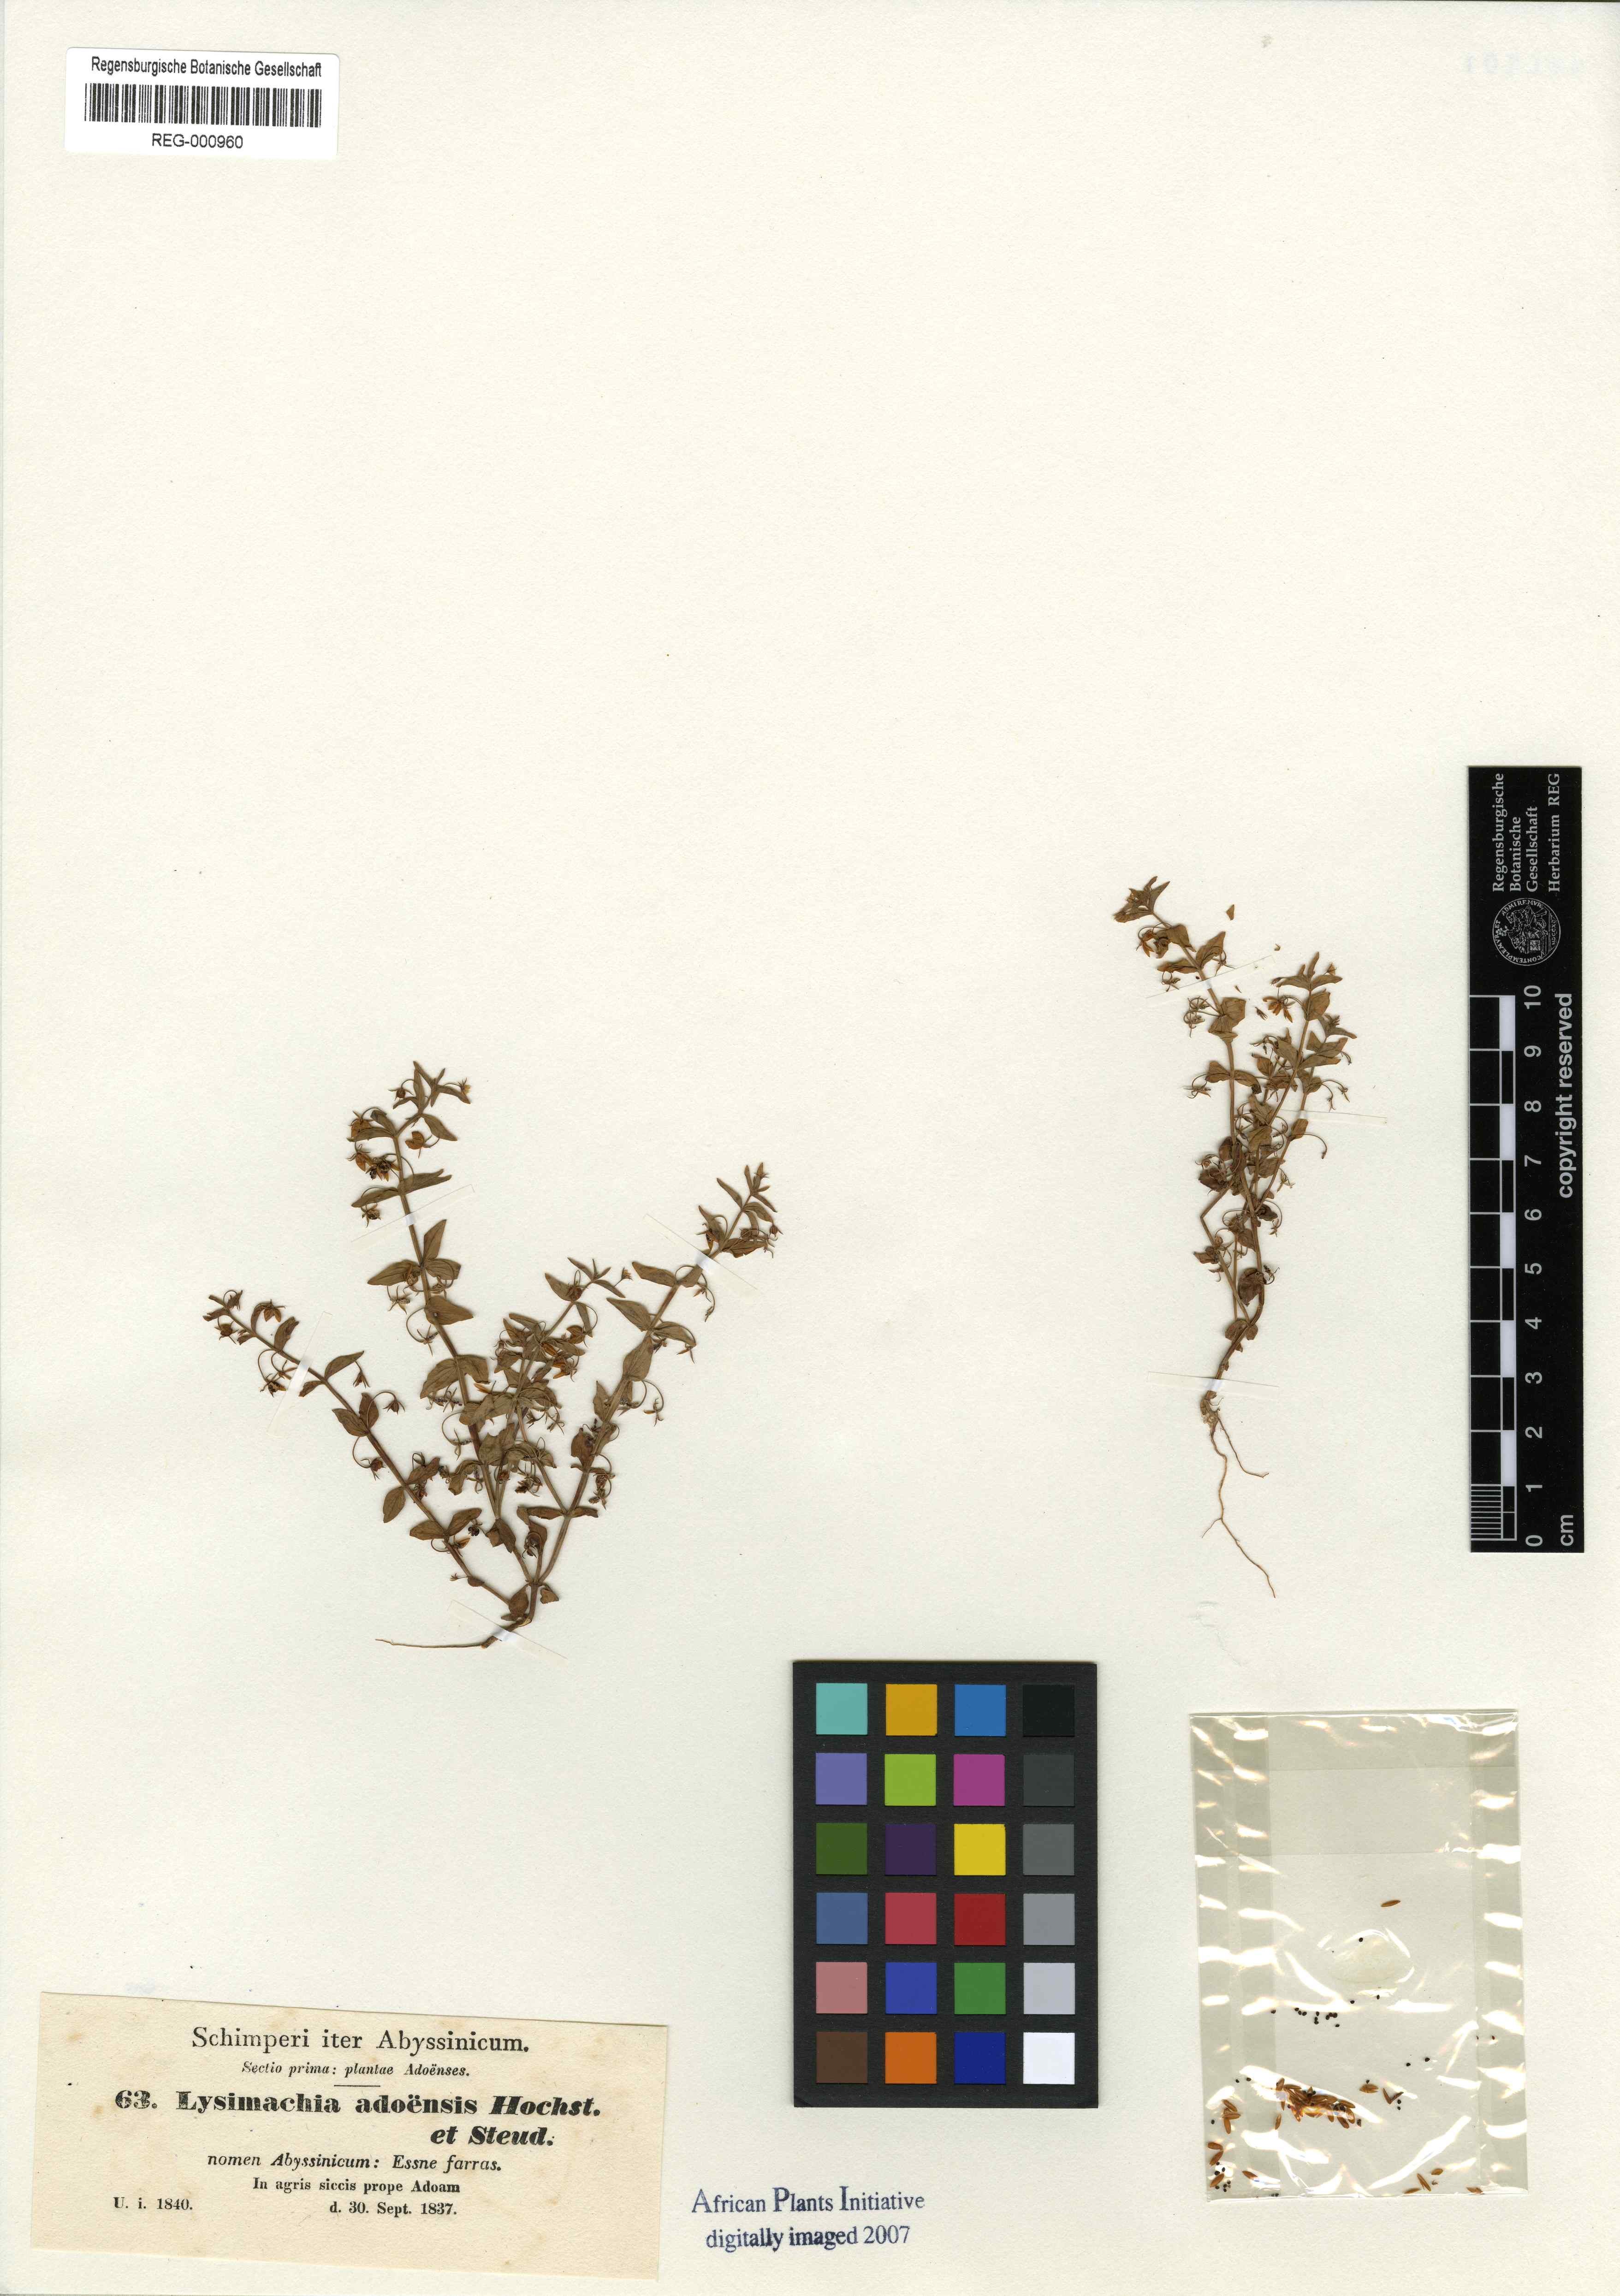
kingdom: Plantae
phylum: Tracheophyta
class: Magnoliopsida
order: Ericales
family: Primulaceae
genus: Lysimachia
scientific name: Lysimachia adoensis
